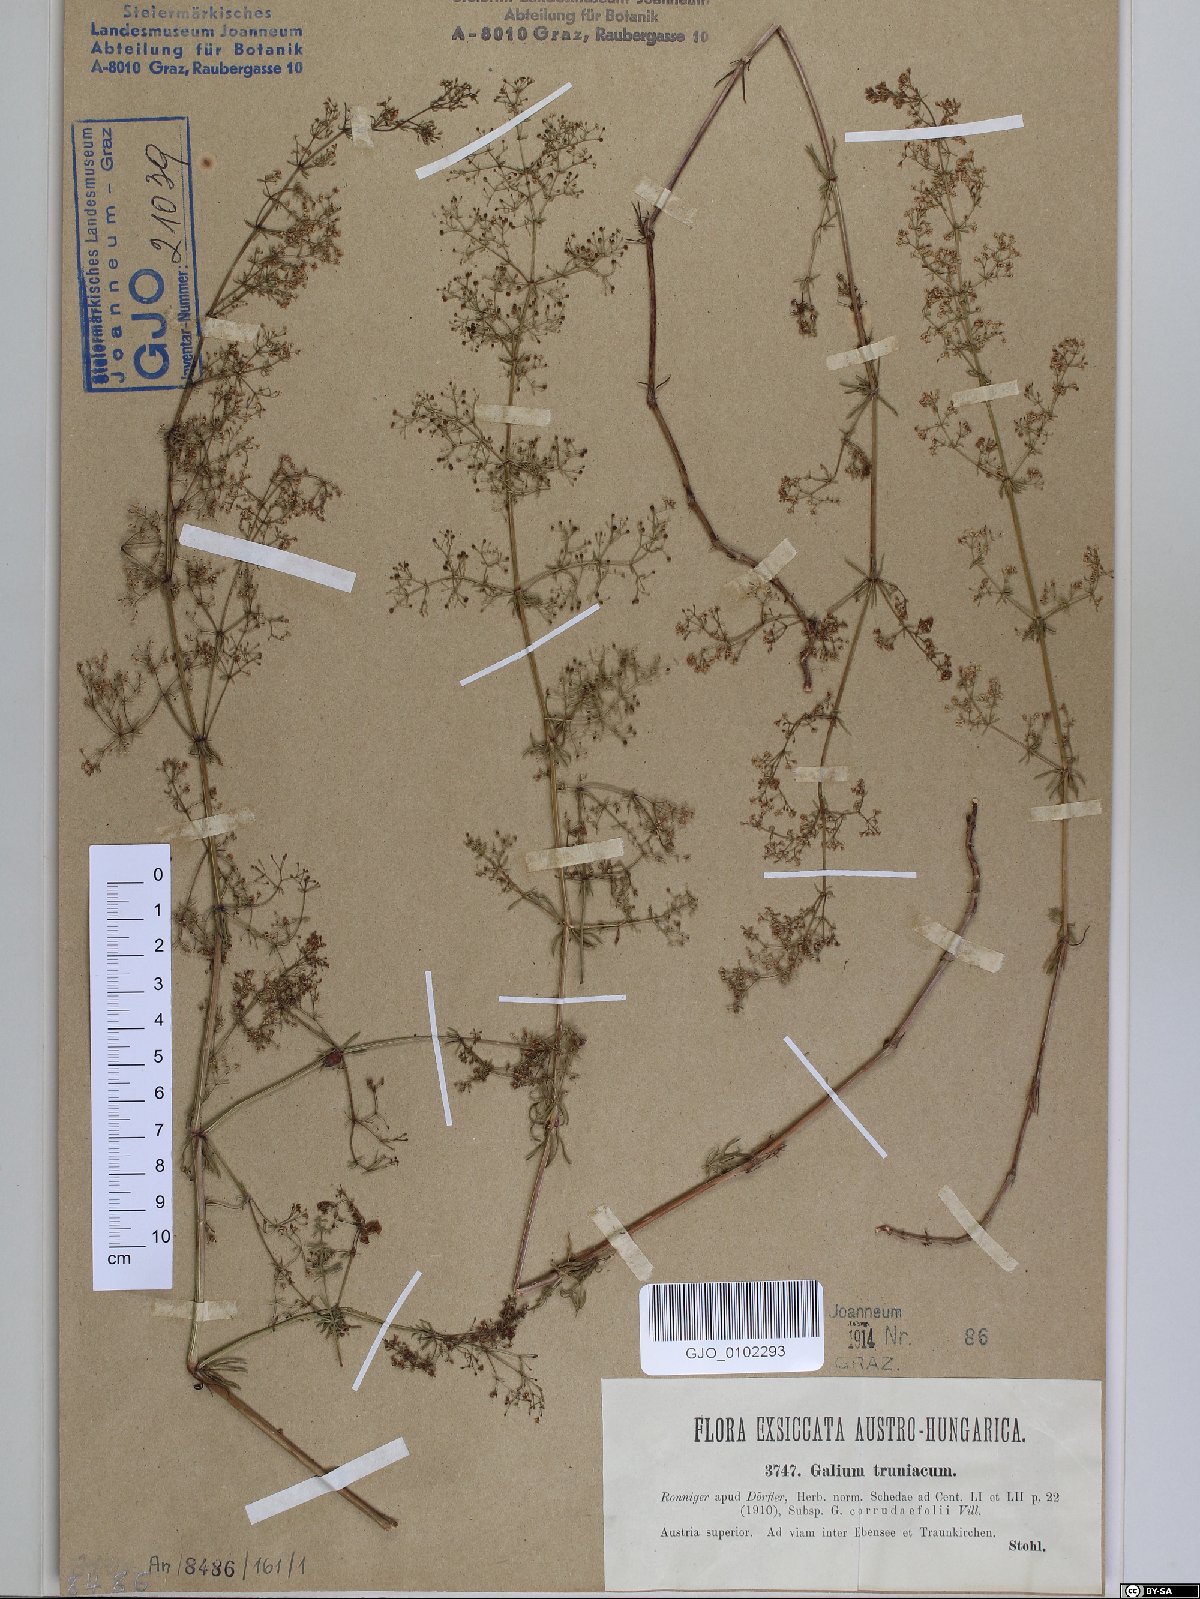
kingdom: Plantae
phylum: Tracheophyta
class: Magnoliopsida
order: Gentianales
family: Rubiaceae
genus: Galium
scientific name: Galium truniacum
